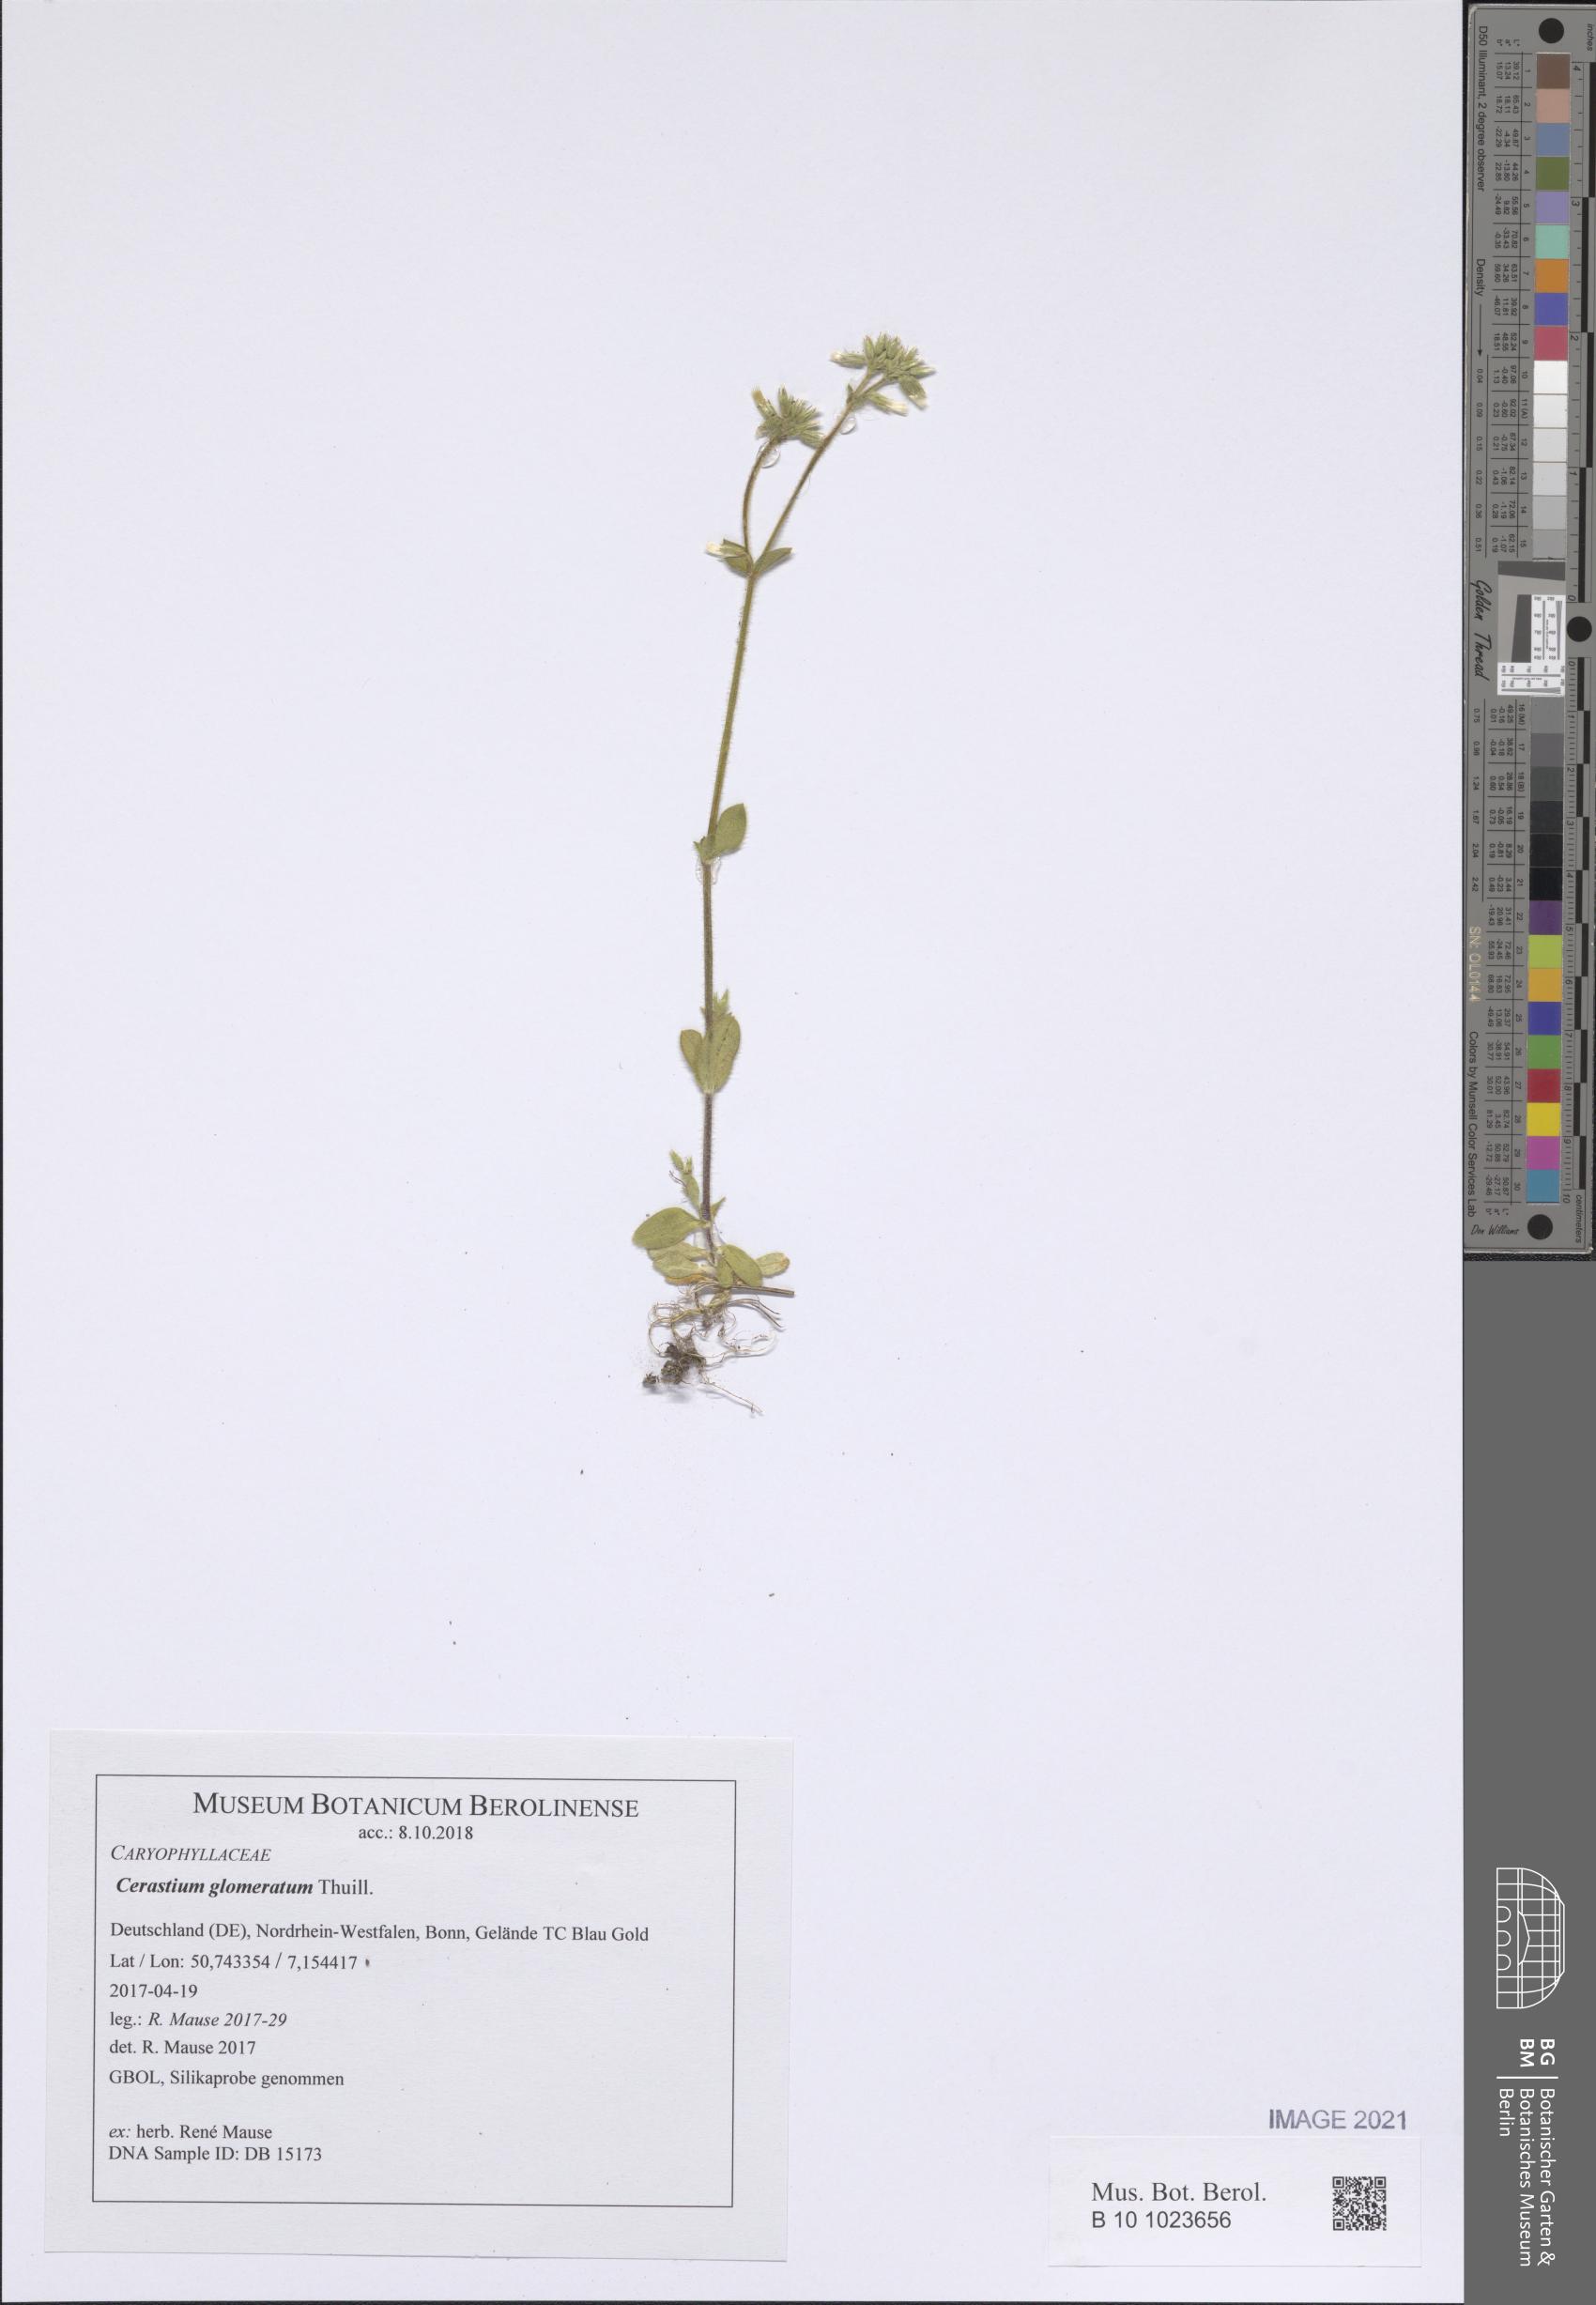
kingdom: Plantae
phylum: Tracheophyta
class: Magnoliopsida
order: Caryophyllales
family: Caryophyllaceae
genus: Cerastium
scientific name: Cerastium glomeratum
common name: Sticky chickweed
